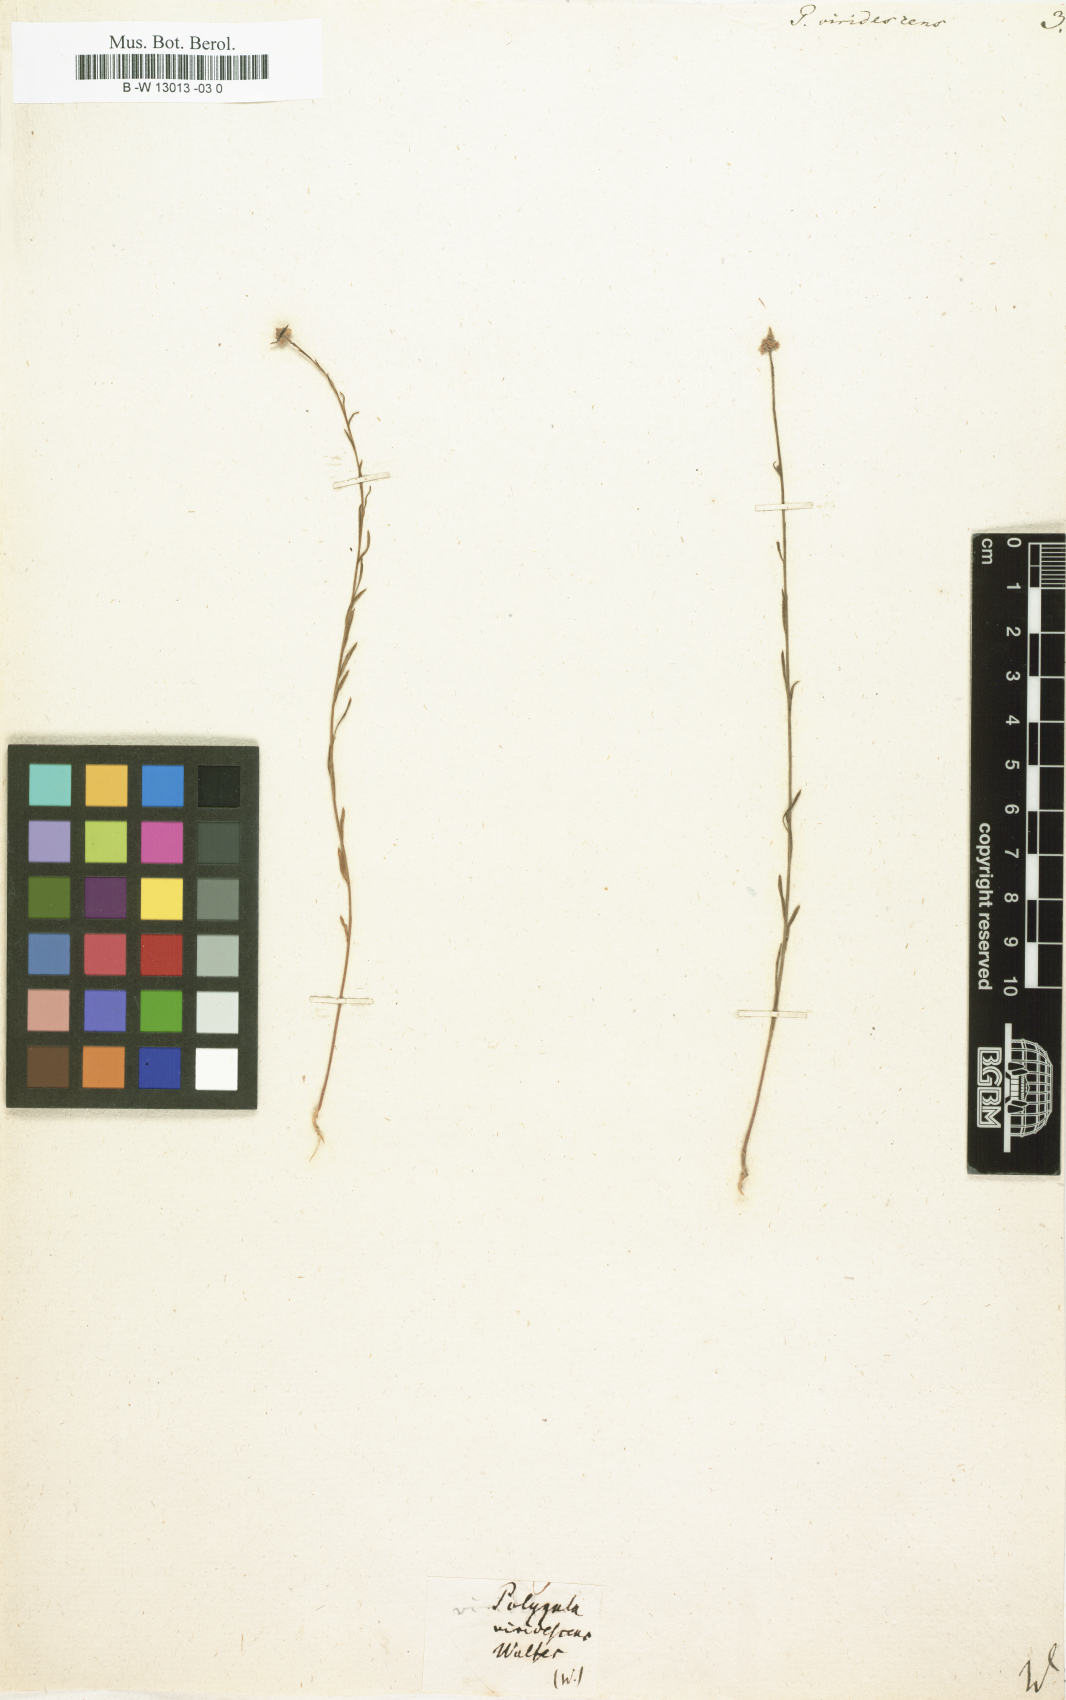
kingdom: Plantae
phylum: Tracheophyta
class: Magnoliopsida
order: Fabales
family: Polygalaceae
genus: Polygala
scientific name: Polygala
